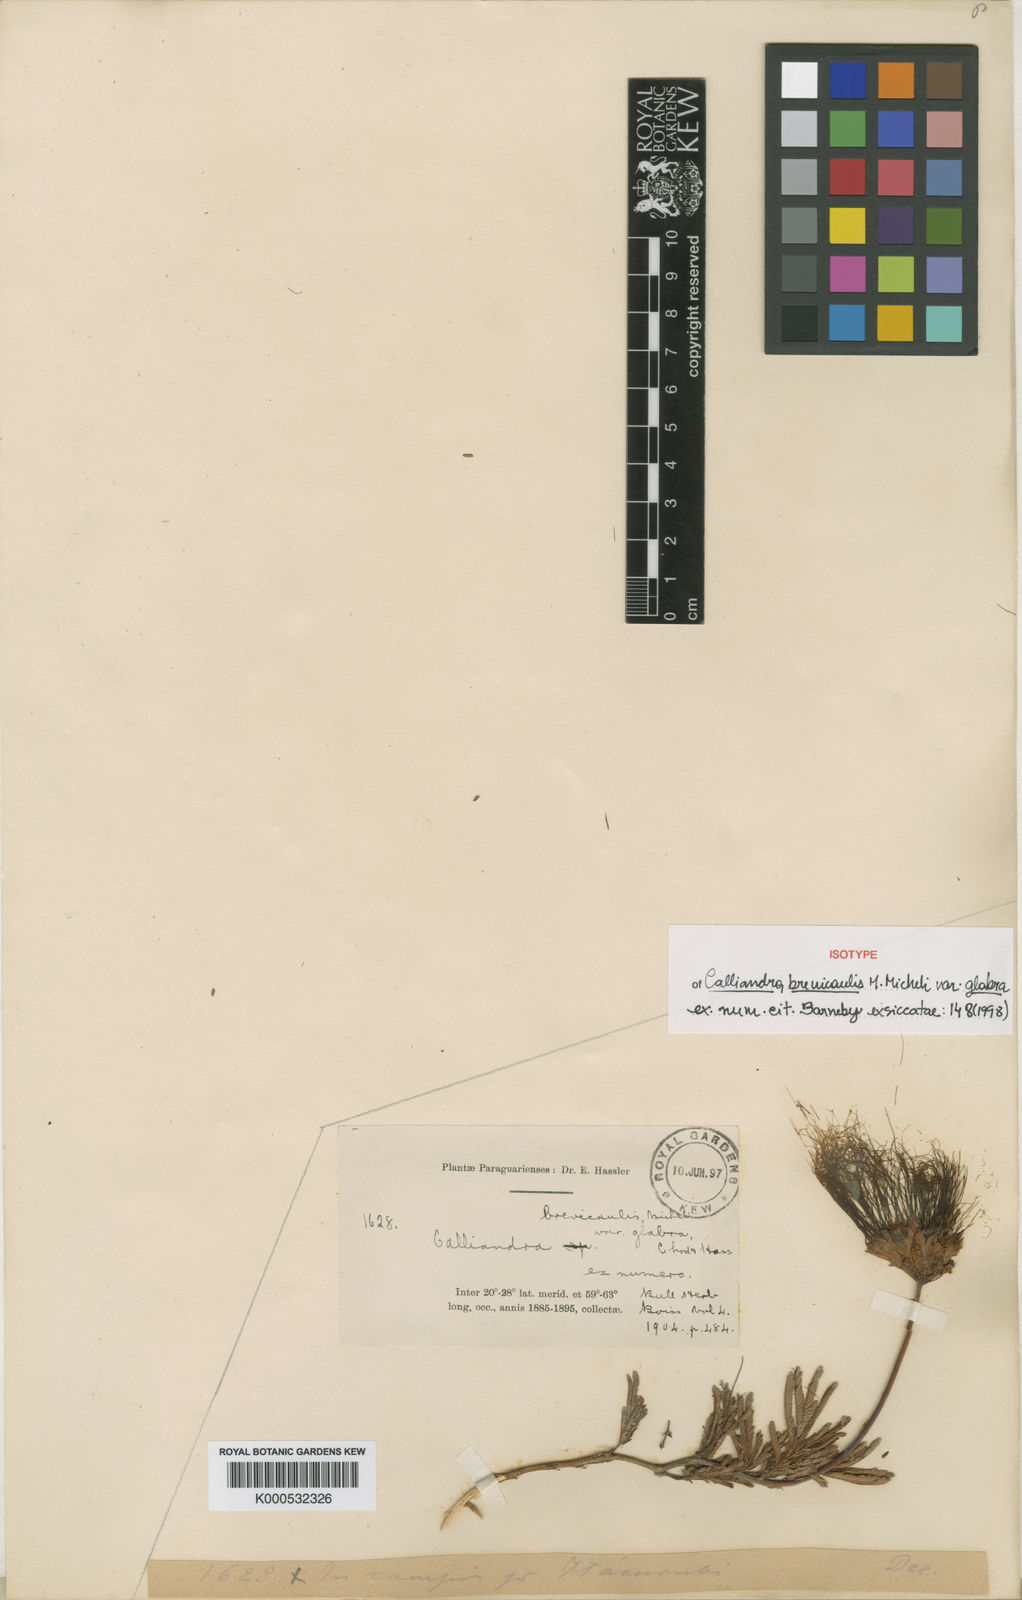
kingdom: Plantae
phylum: Tracheophyta
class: Magnoliopsida
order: Fabales
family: Fabaceae
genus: Calliandra
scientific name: Calliandra brevicaulis
